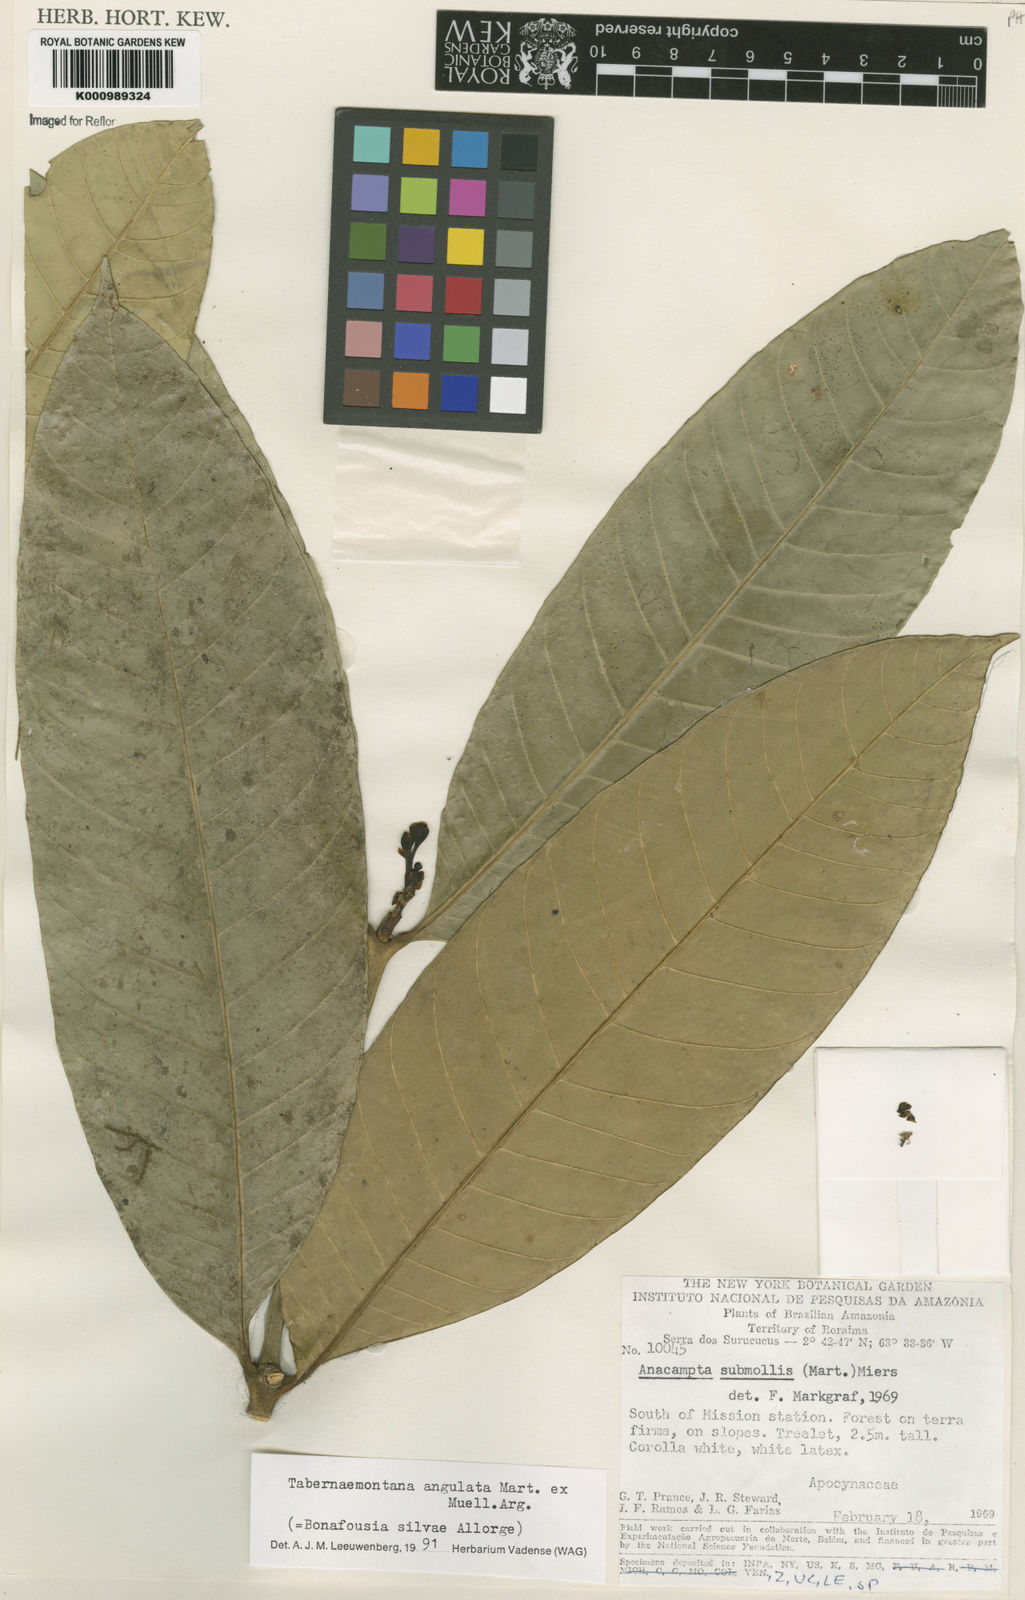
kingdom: Plantae
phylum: Tracheophyta
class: Magnoliopsida
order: Gentianales
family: Apocynaceae
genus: Tabernaemontana
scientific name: Tabernaemontana
